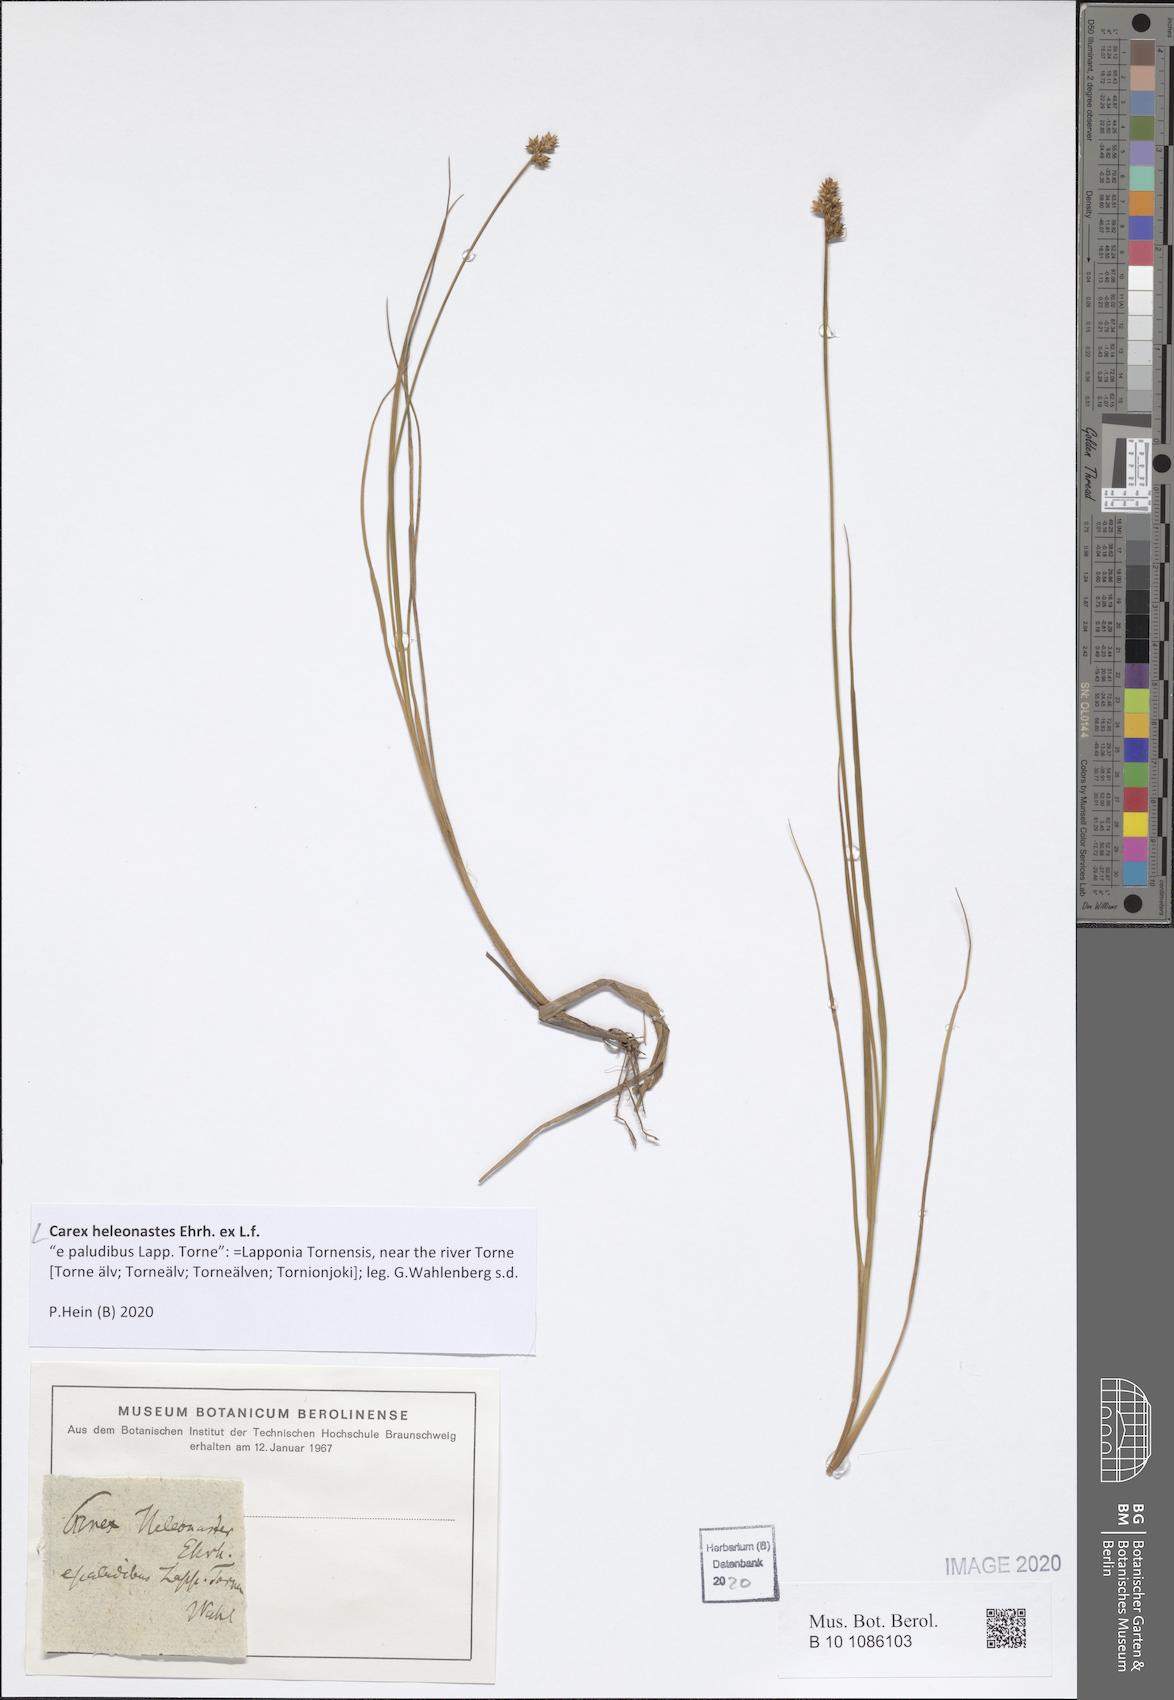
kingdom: Plantae
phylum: Tracheophyta
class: Liliopsida
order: Poales
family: Cyperaceae
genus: Carex
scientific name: Carex heleonastes
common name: Hudson bay sedge
